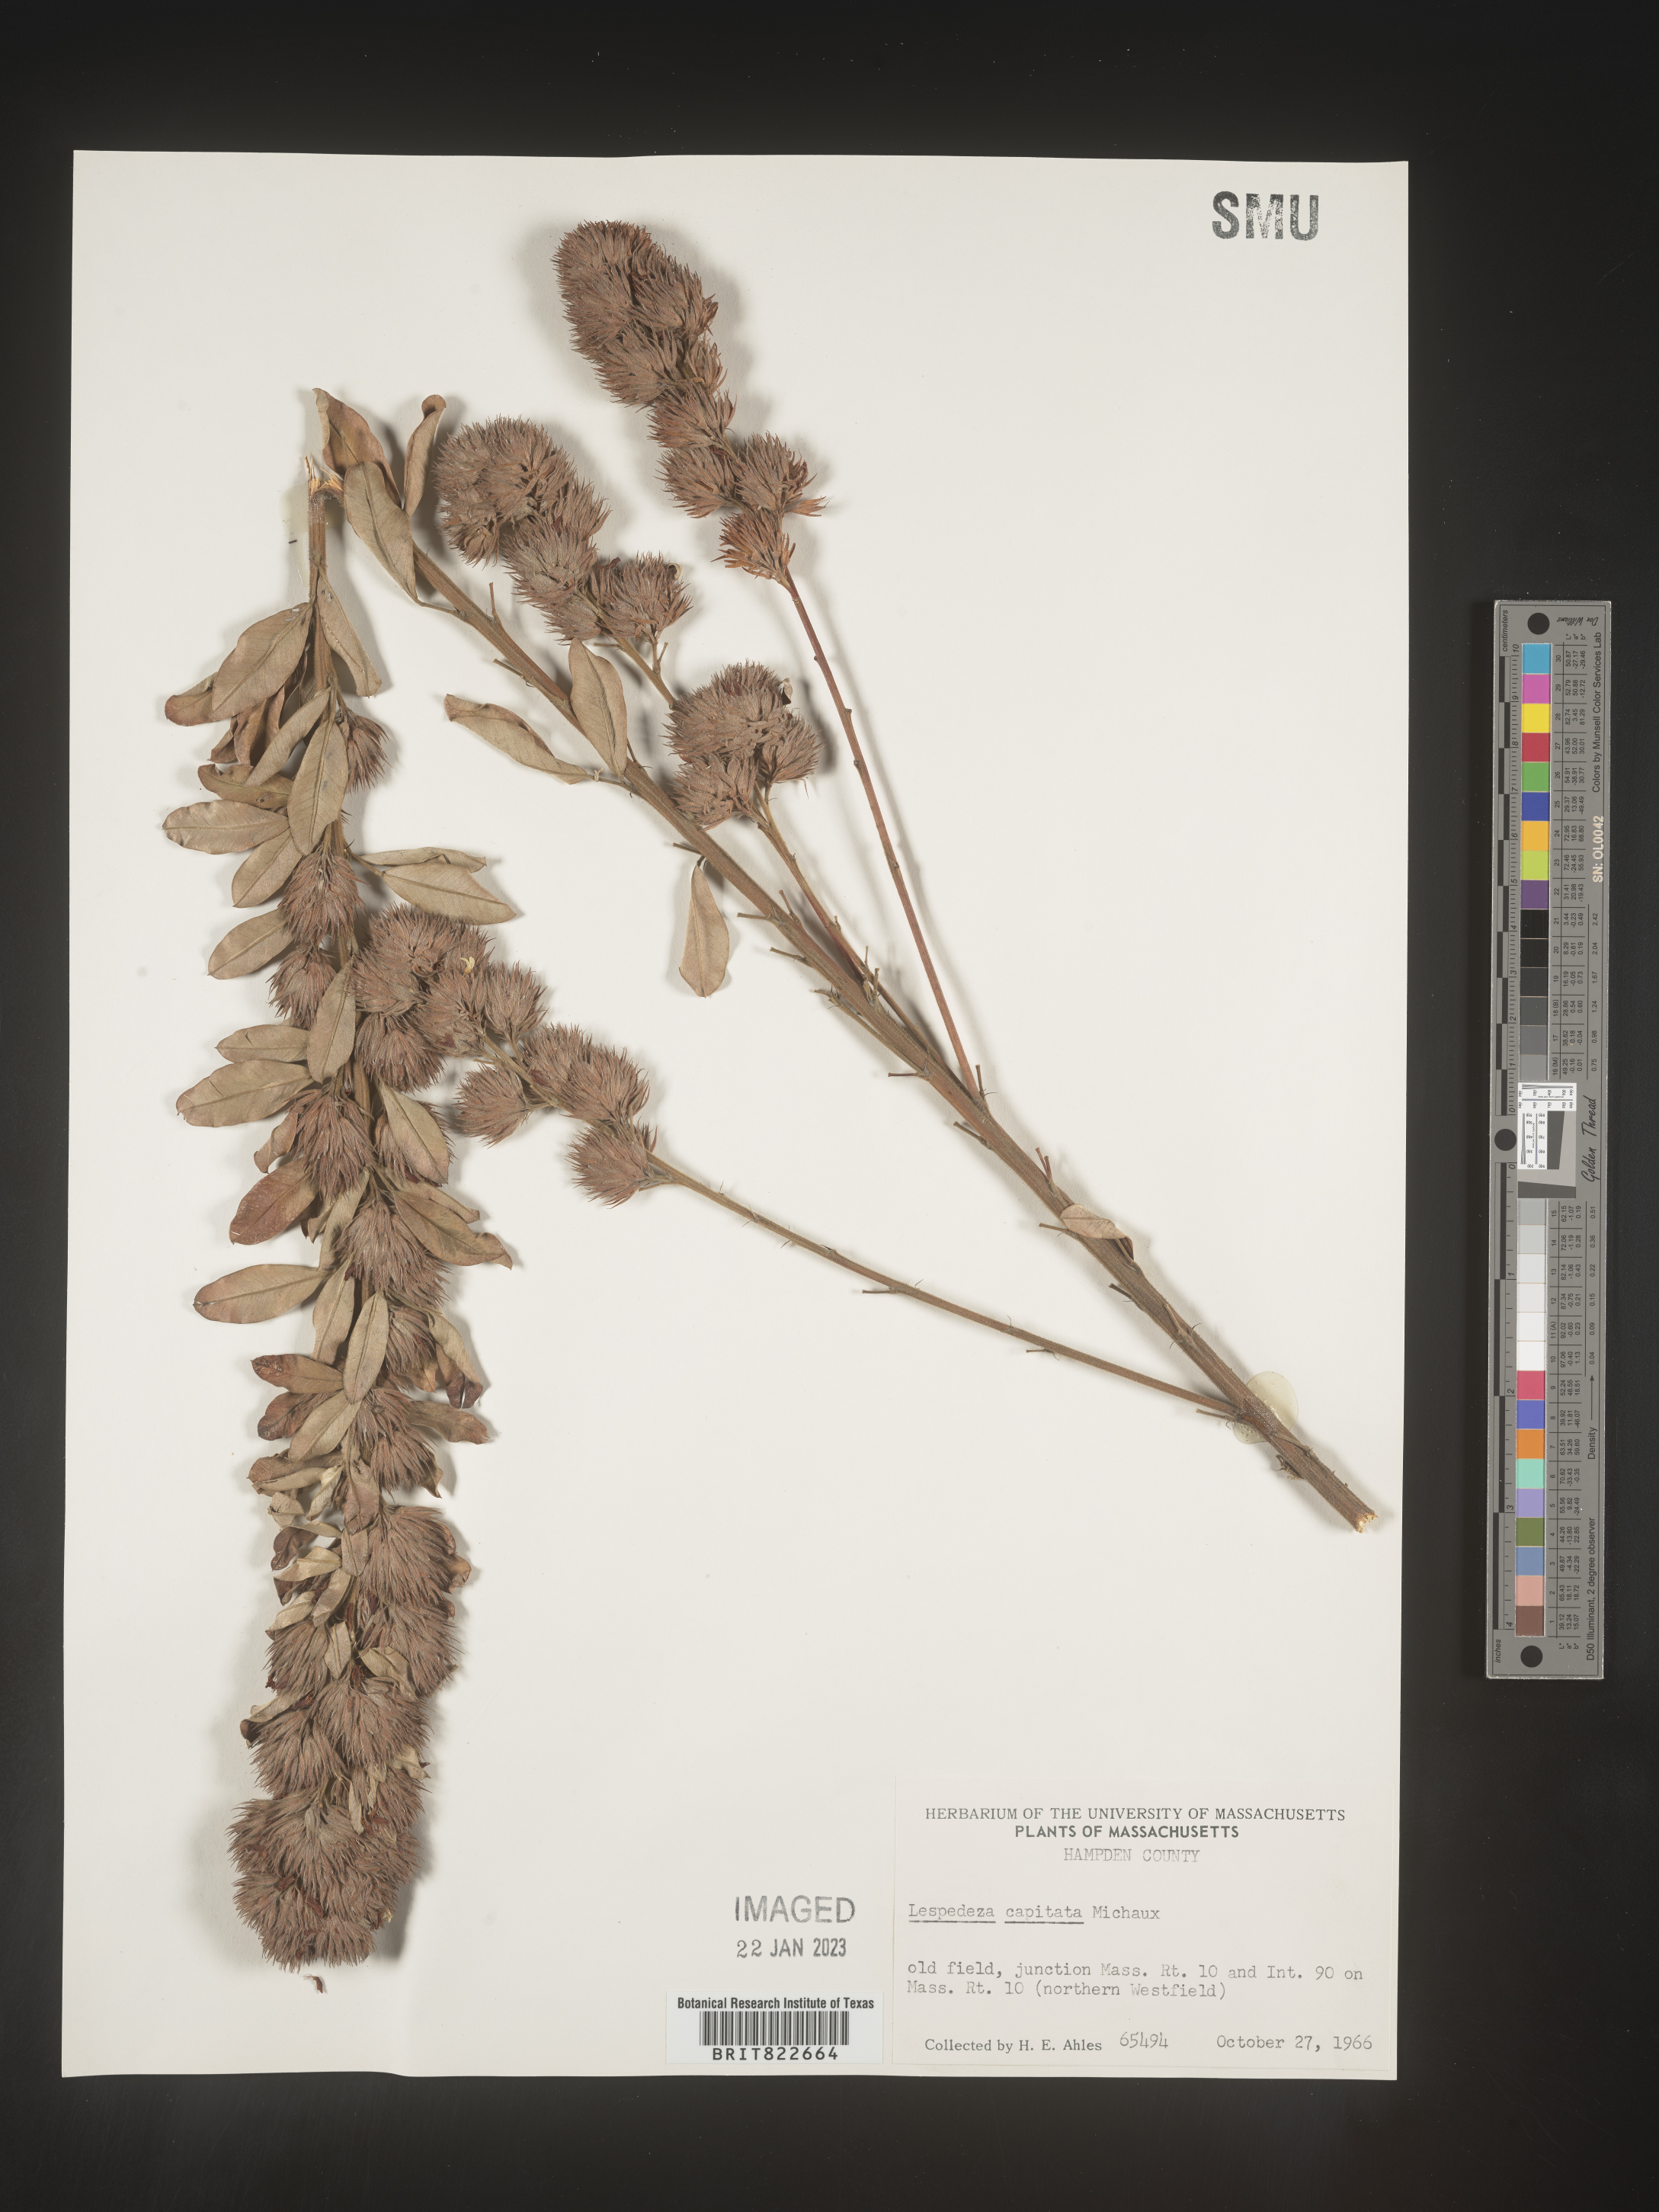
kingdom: Plantae
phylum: Tracheophyta
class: Magnoliopsida
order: Fabales
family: Fabaceae
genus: Lespedeza
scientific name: Lespedeza capitata
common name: Dusty clover
